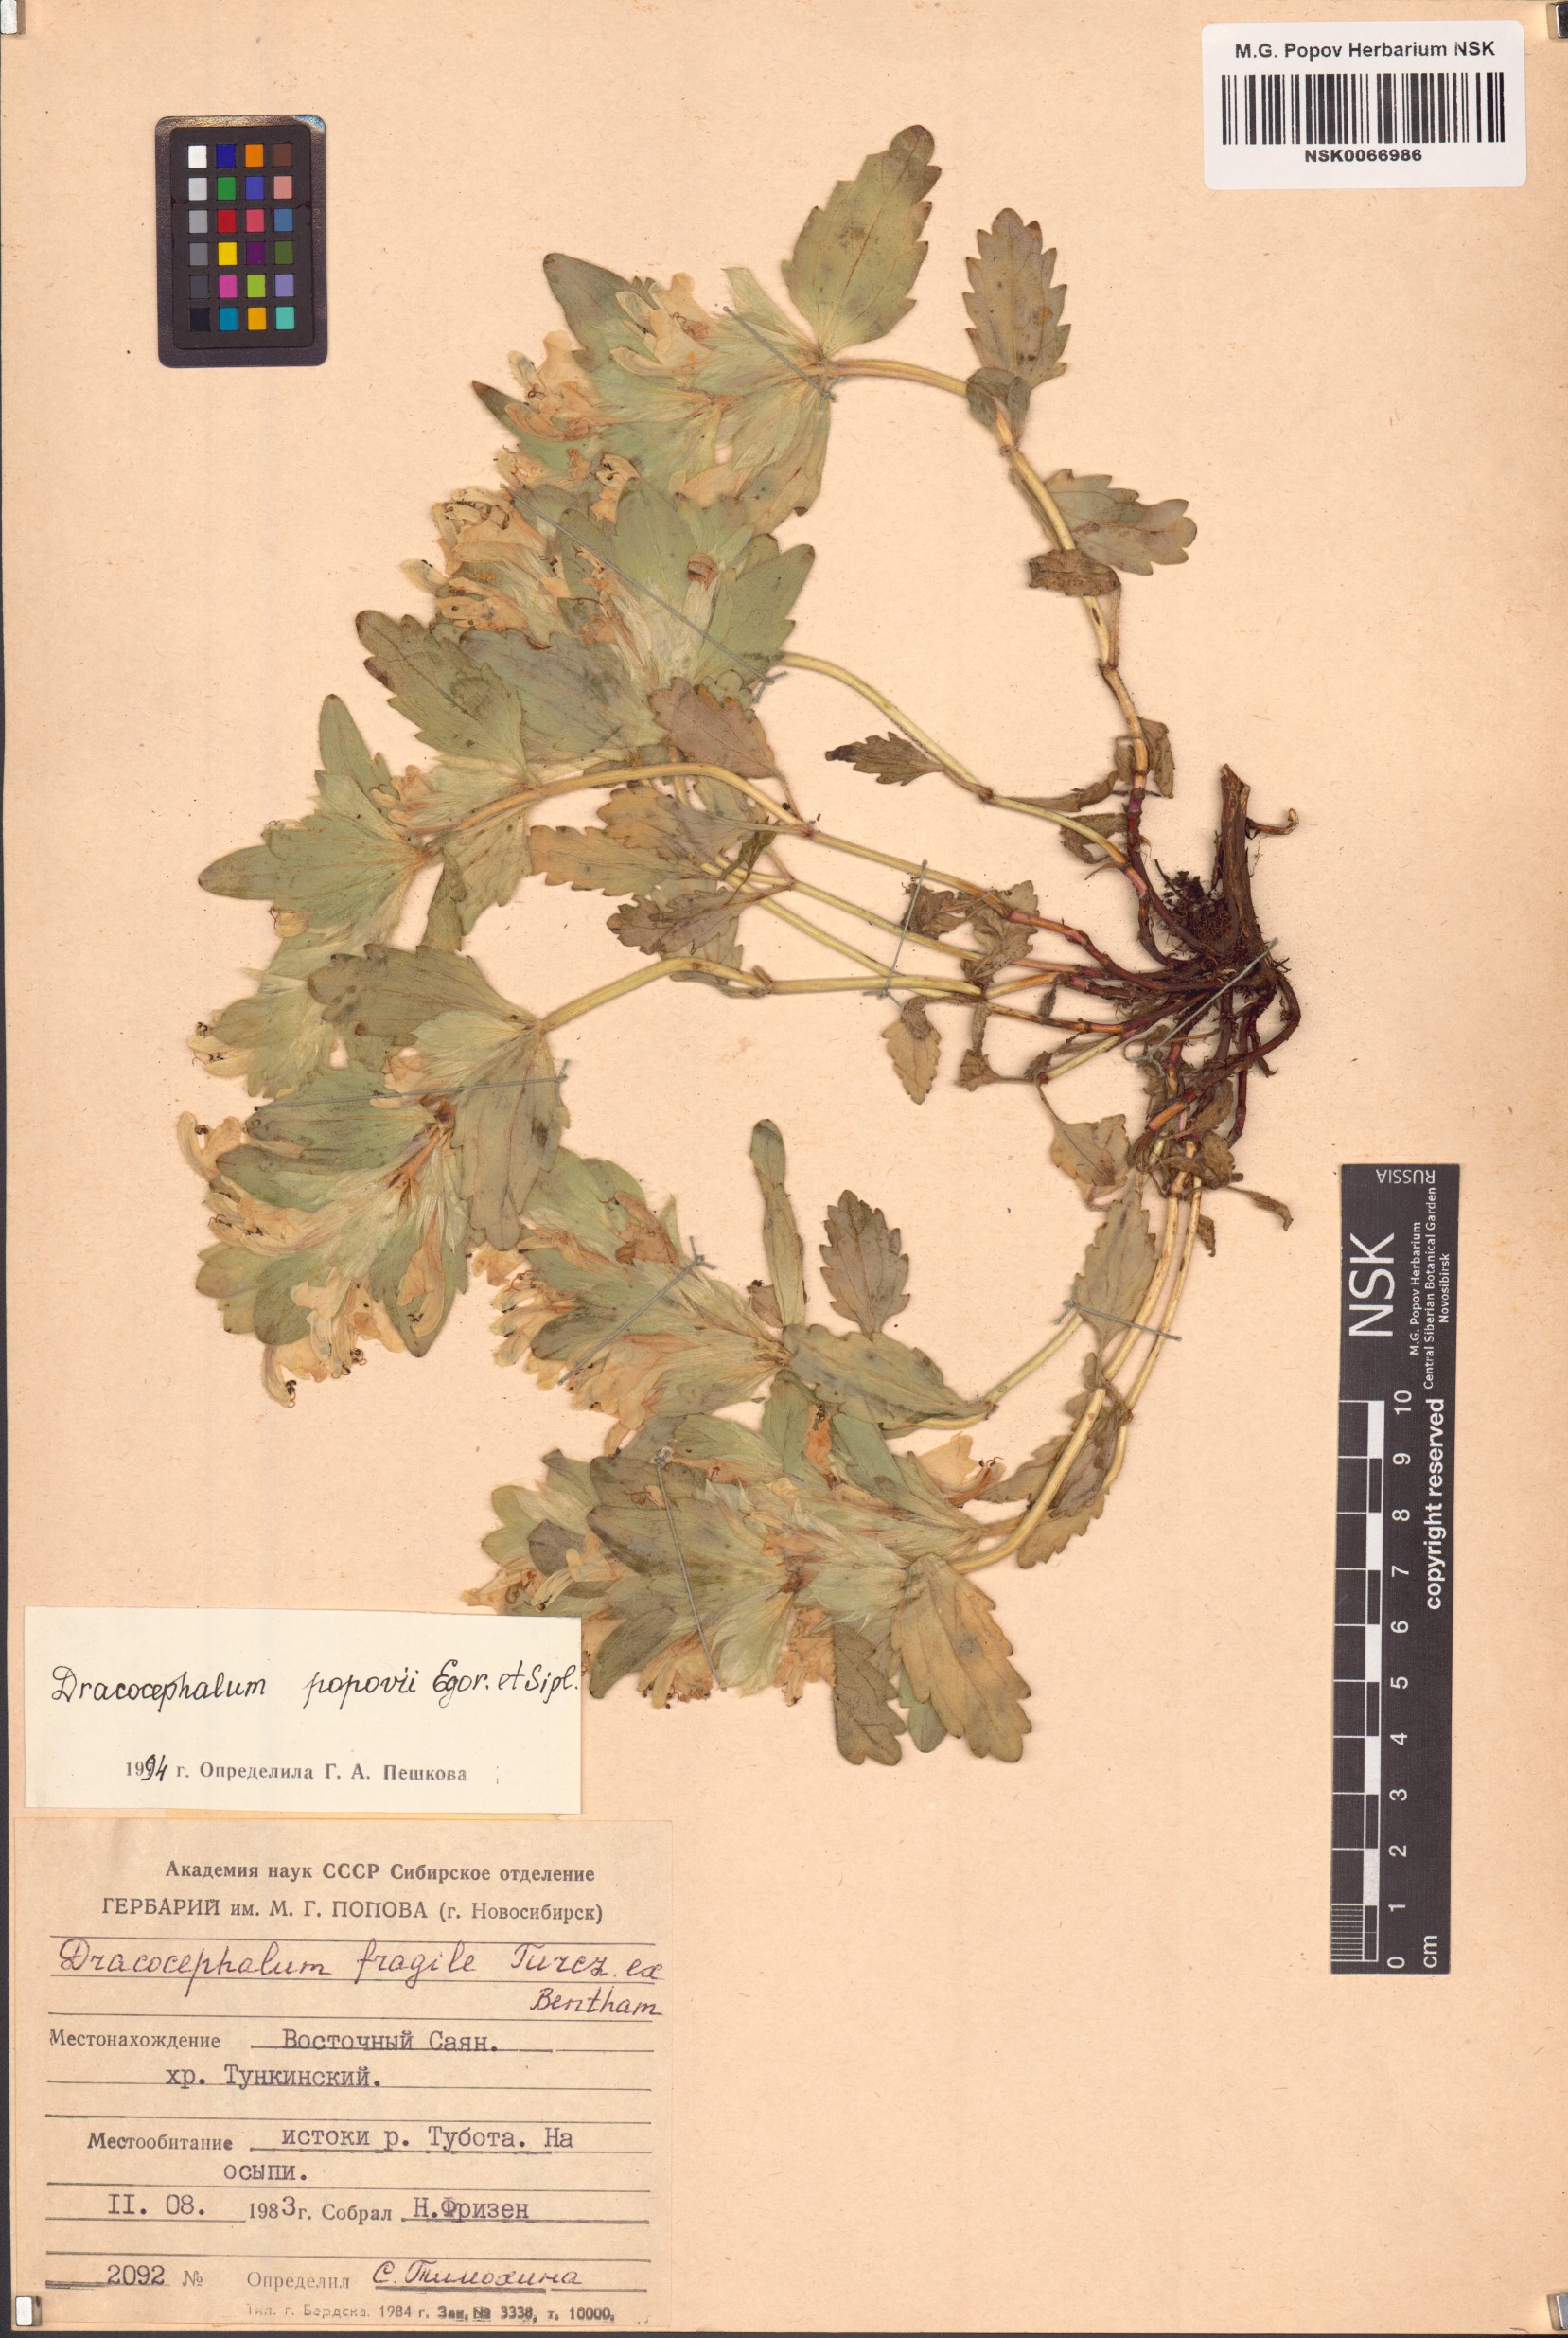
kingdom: Plantae
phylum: Tracheophyta
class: Magnoliopsida
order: Lamiales
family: Lamiaceae
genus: Dracocephalum
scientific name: Dracocephalum popovii
